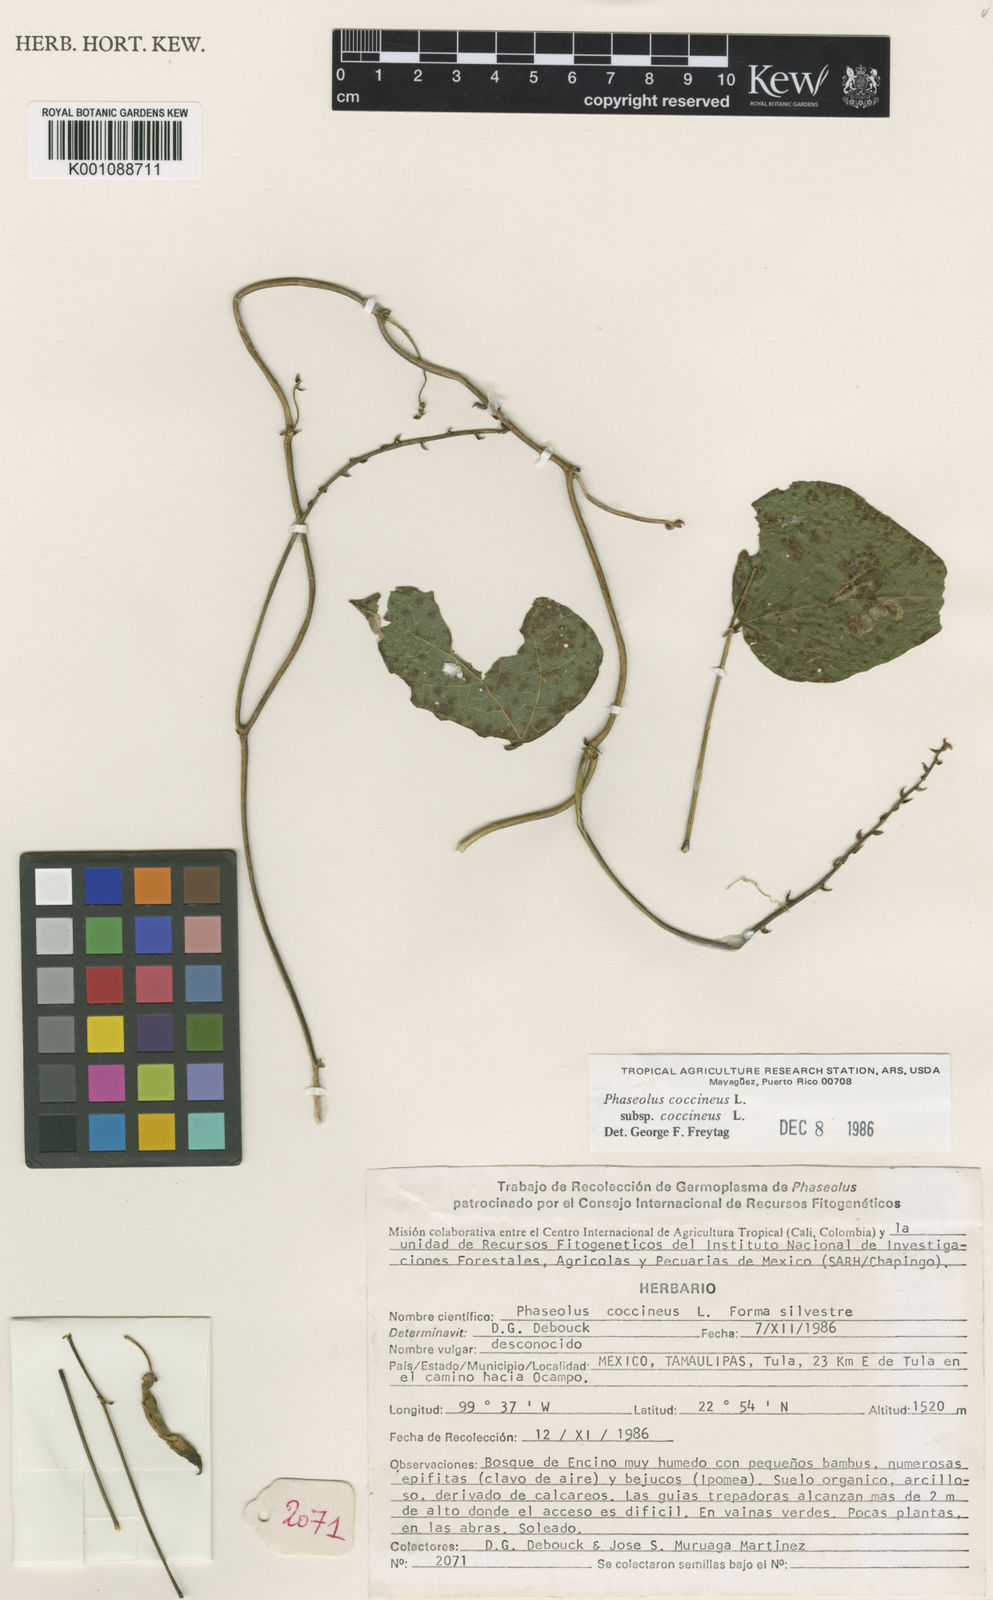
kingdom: Plantae
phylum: Tracheophyta
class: Magnoliopsida
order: Fabales
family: Fabaceae
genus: Phaseolus
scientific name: Phaseolus coccineus
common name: Runner bean
